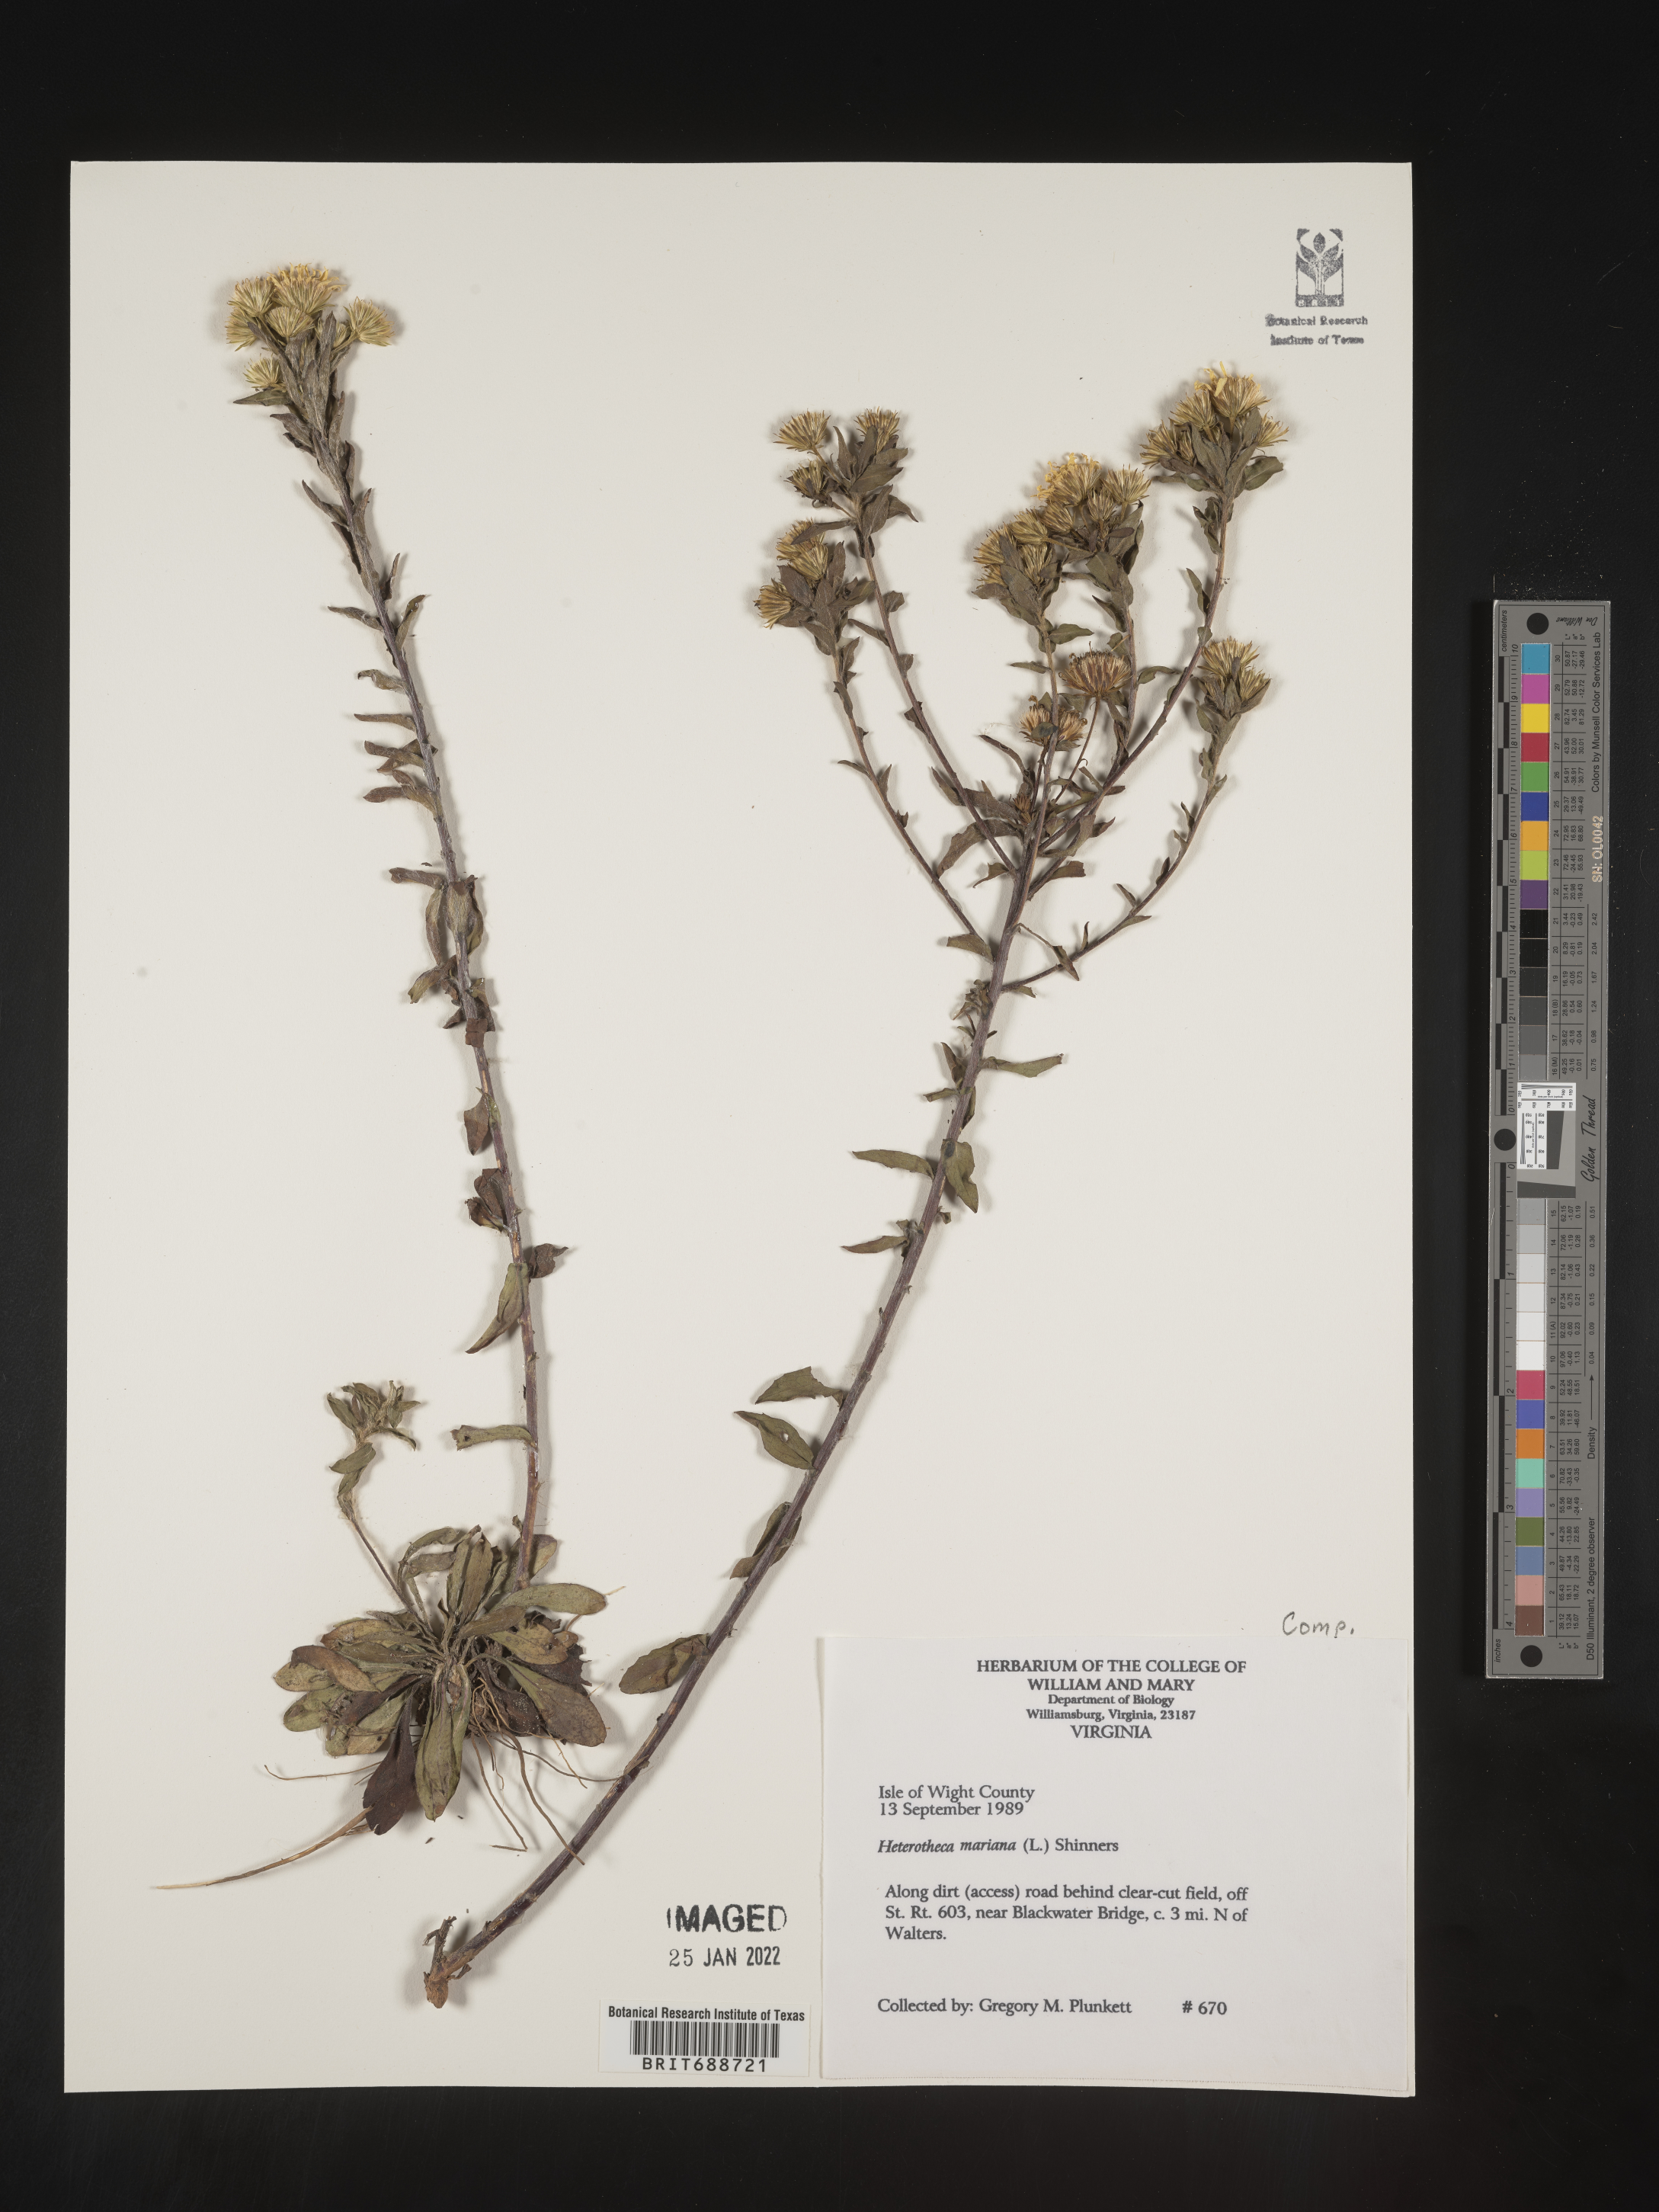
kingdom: Plantae
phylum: Tracheophyta
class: Magnoliopsida
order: Asterales
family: Asteraceae
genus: Chrysopsis
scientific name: Chrysopsis mariana
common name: Maryland golden-aster
